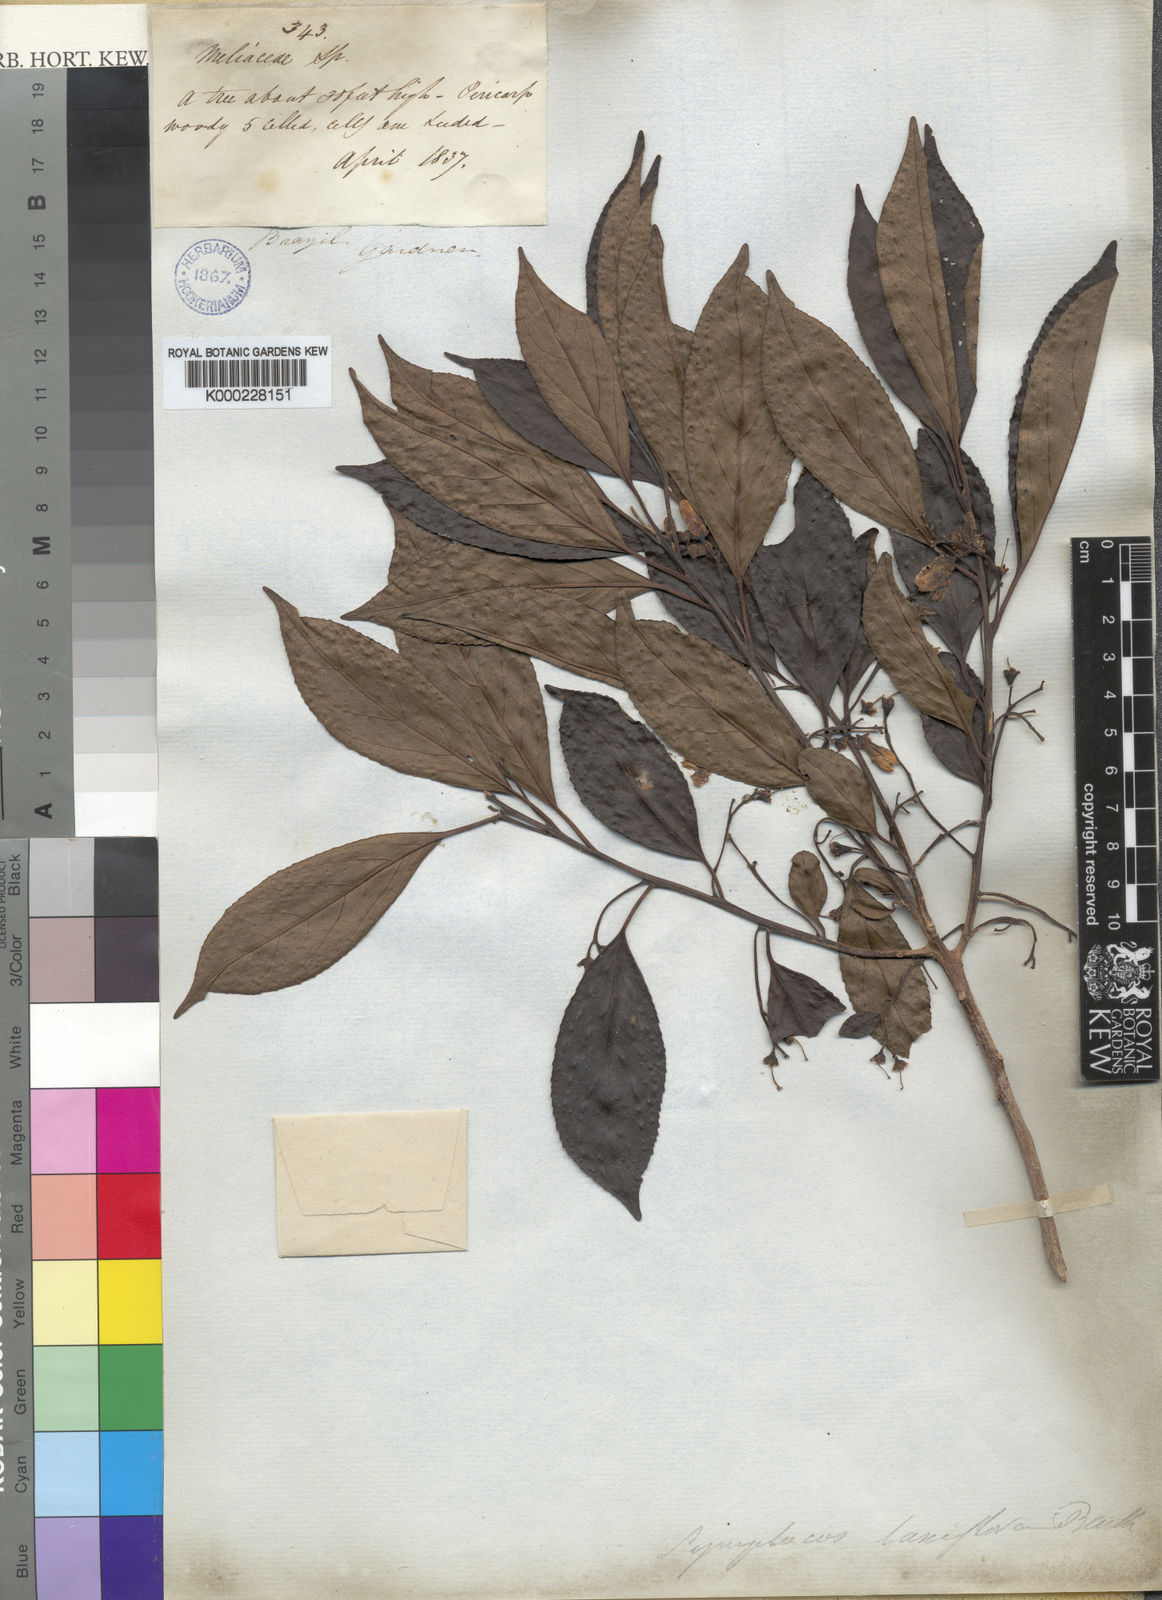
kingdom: Plantae
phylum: Tracheophyta
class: Magnoliopsida
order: Ericales
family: Symplocaceae
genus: Symplocos
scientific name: Symplocos laxiflora
